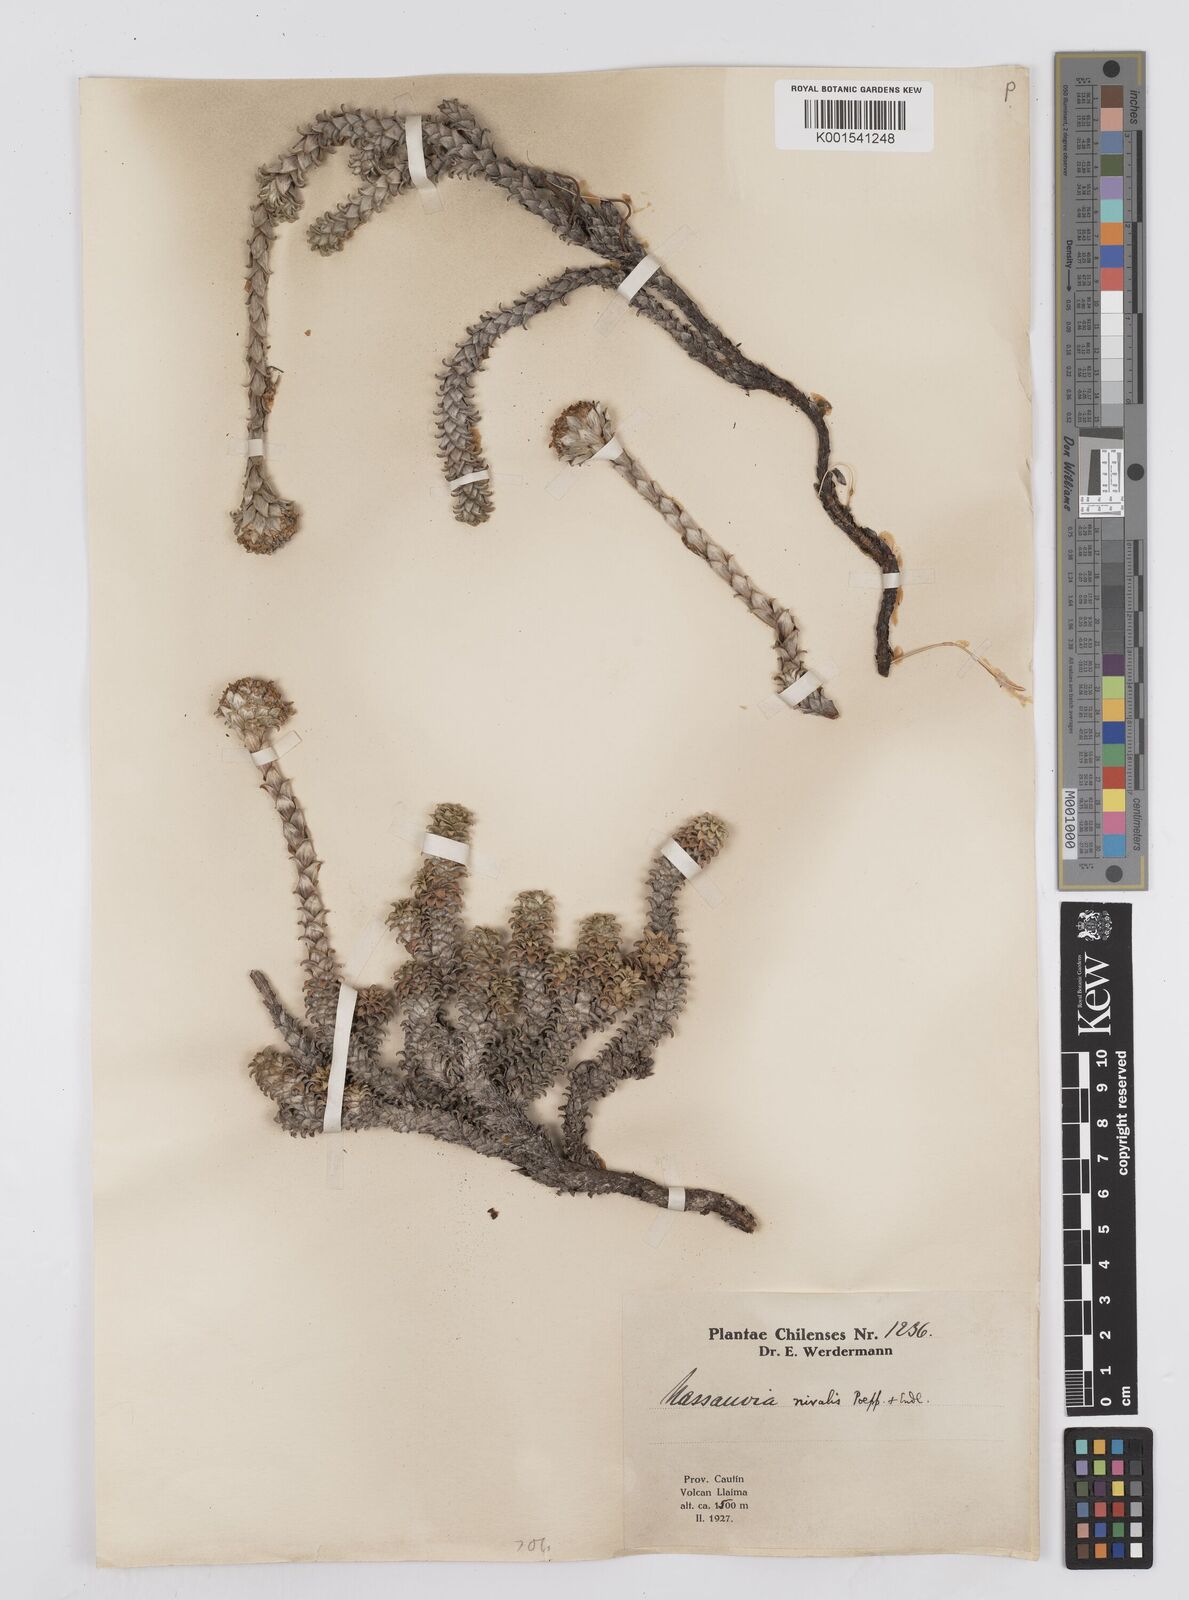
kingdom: Plantae
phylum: Tracheophyta
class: Magnoliopsida
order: Asterales
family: Asteraceae
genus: Nassauvia
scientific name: Nassauvia revoluta
